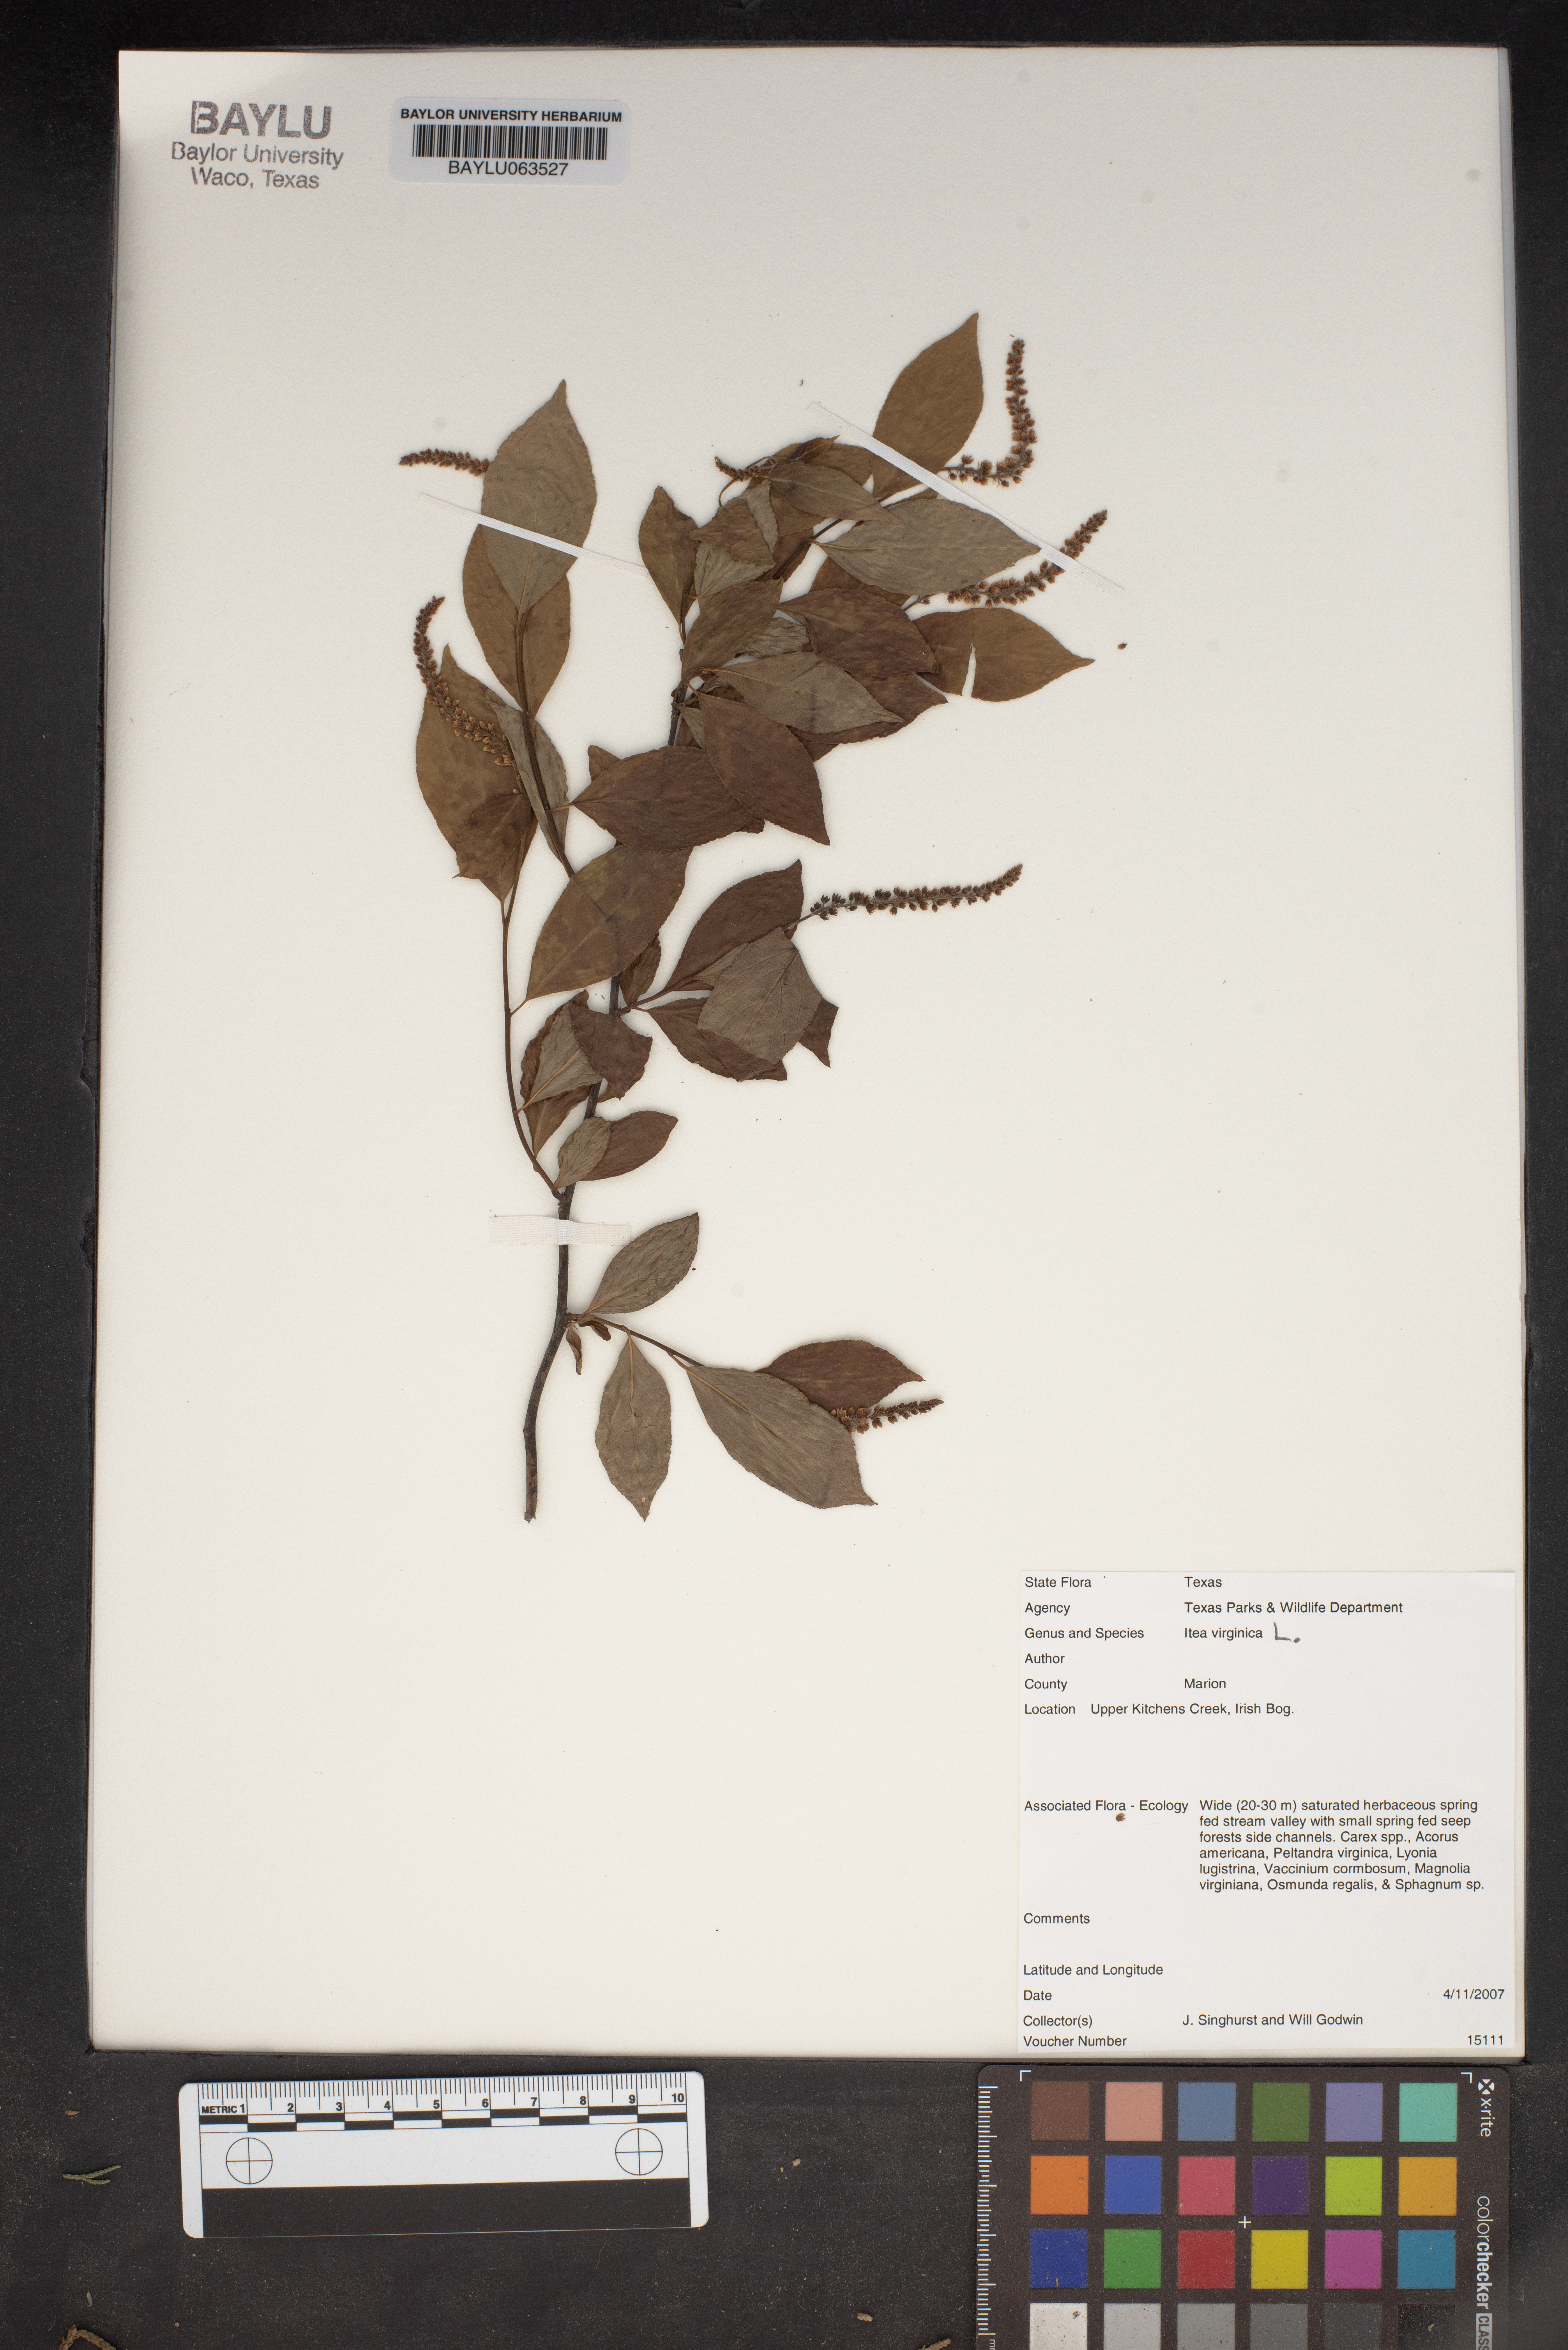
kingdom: Plantae
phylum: Tracheophyta
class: Magnoliopsida
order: Saxifragales
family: Iteaceae
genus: Itea
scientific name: Itea virginica
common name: Sweetspire
